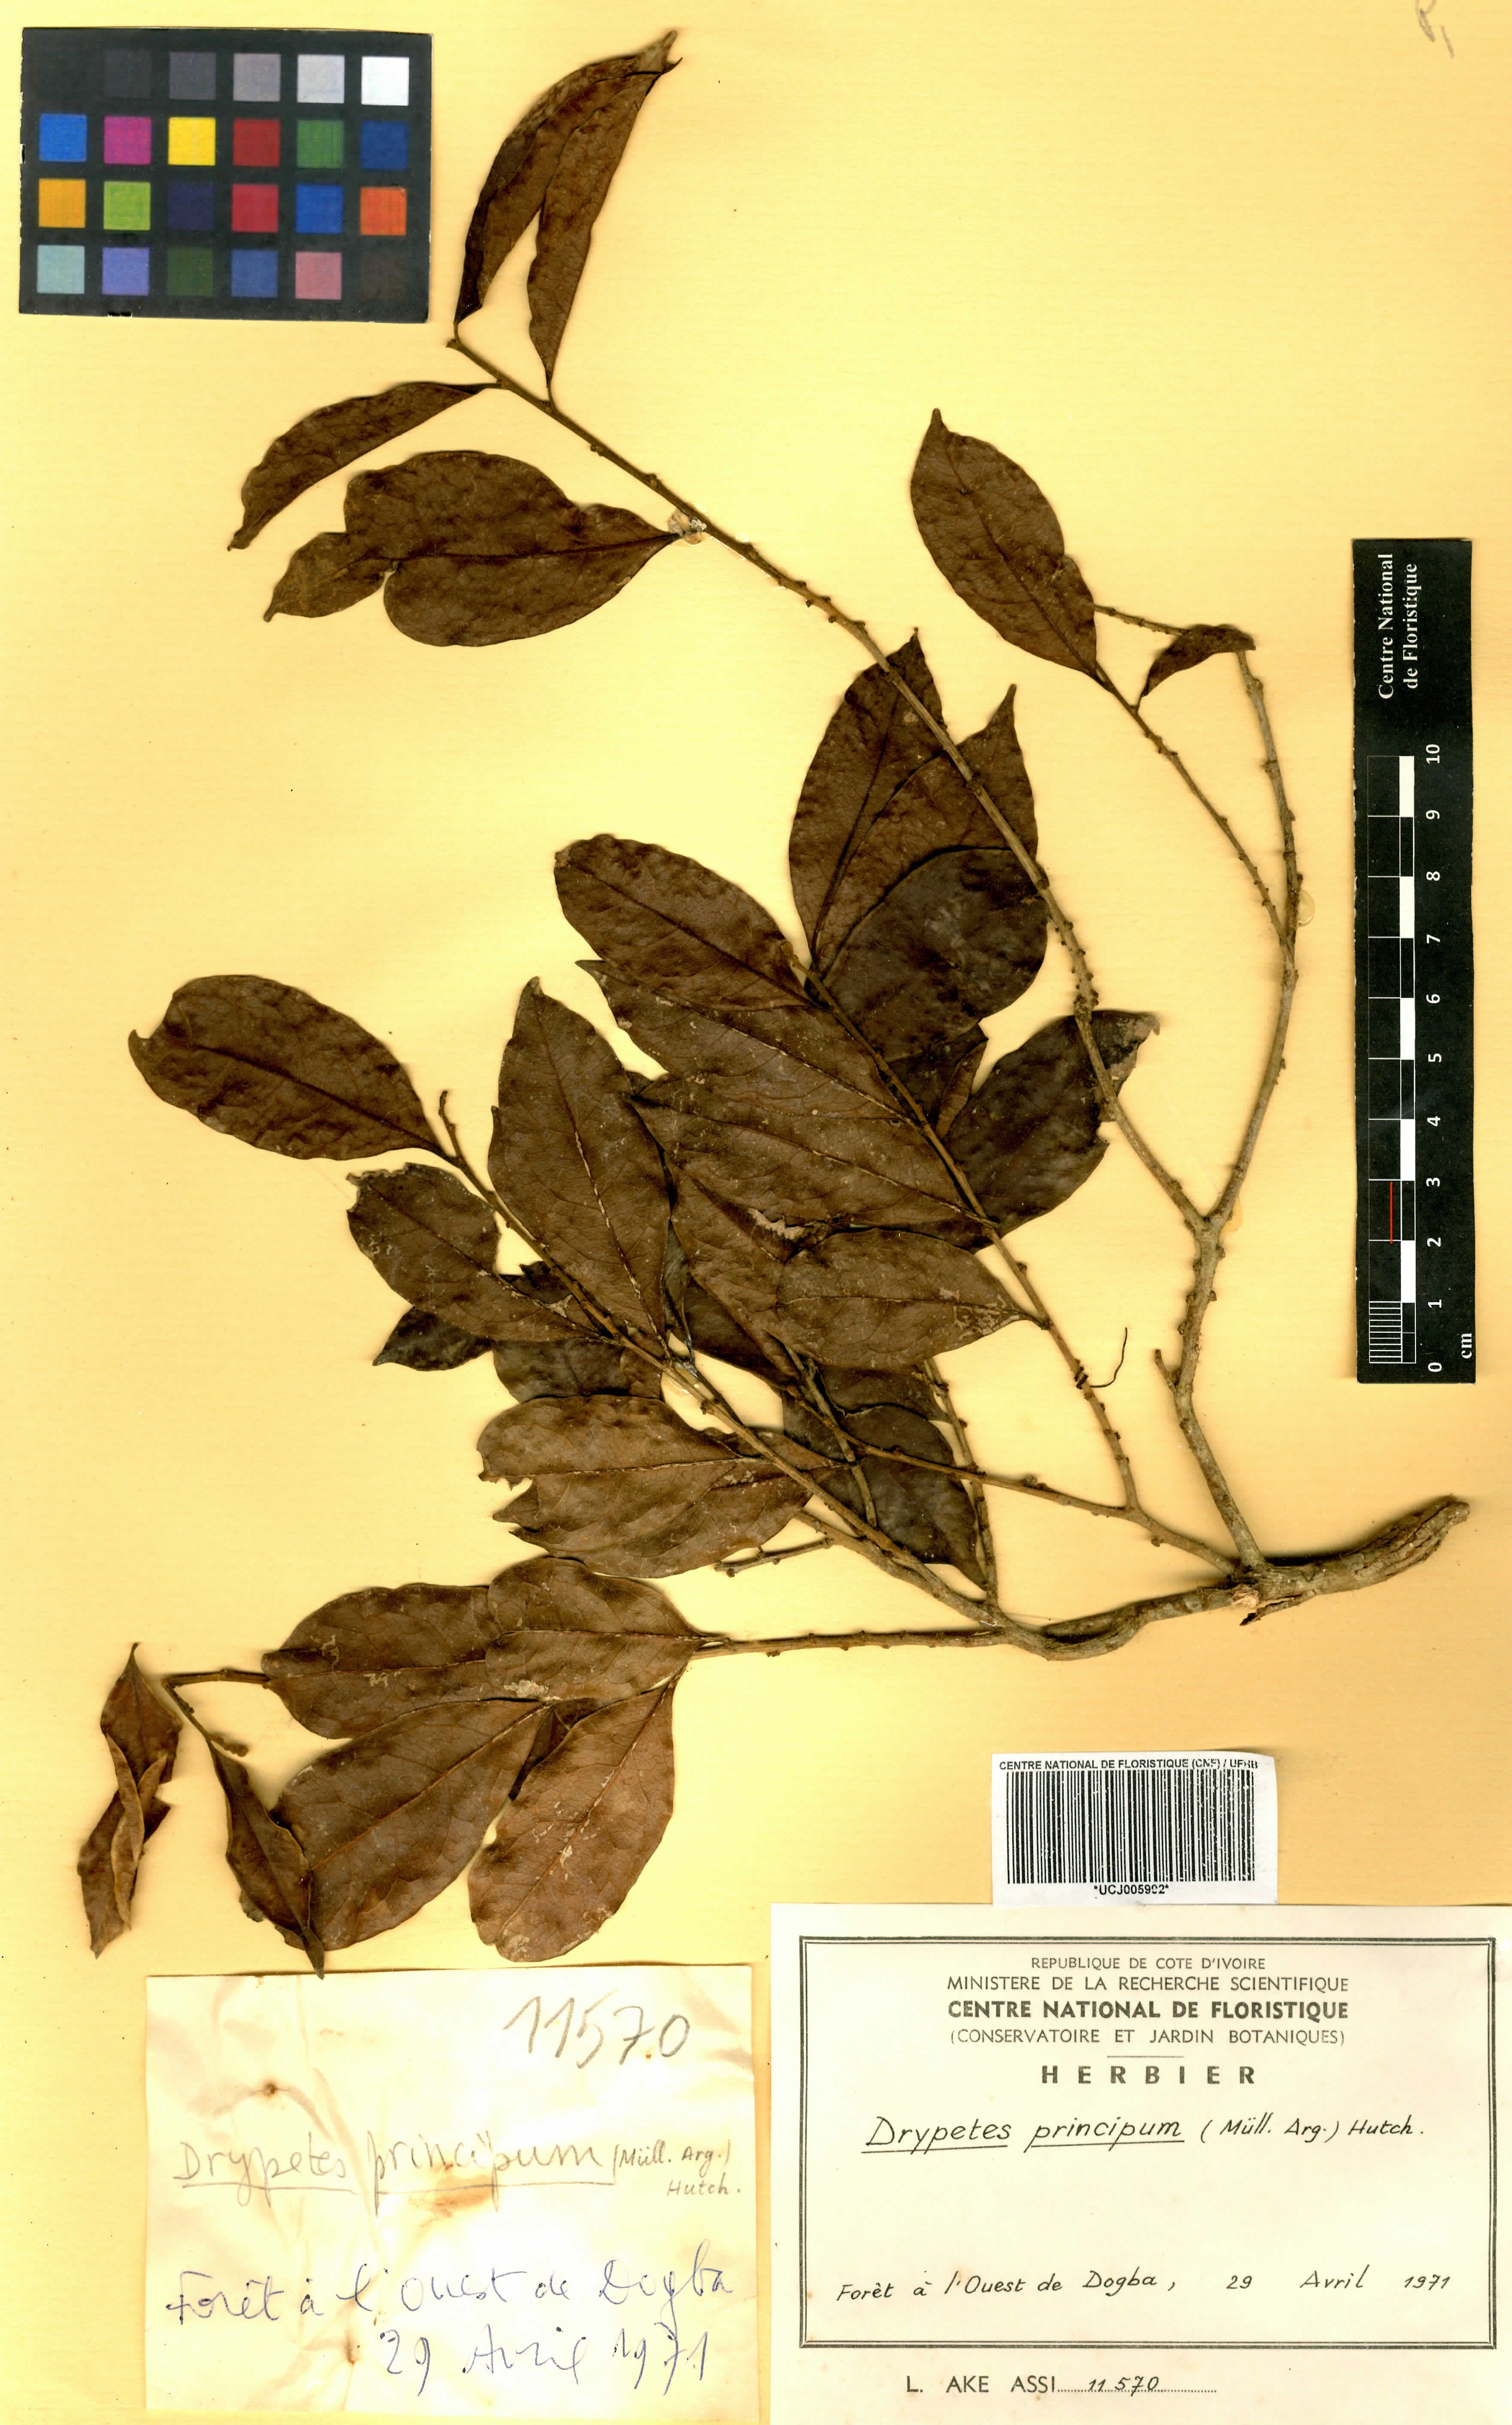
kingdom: Plantae
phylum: Tracheophyta
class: Magnoliopsida
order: Malpighiales
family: Putranjivaceae
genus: Drypetes
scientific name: Drypetes principum
